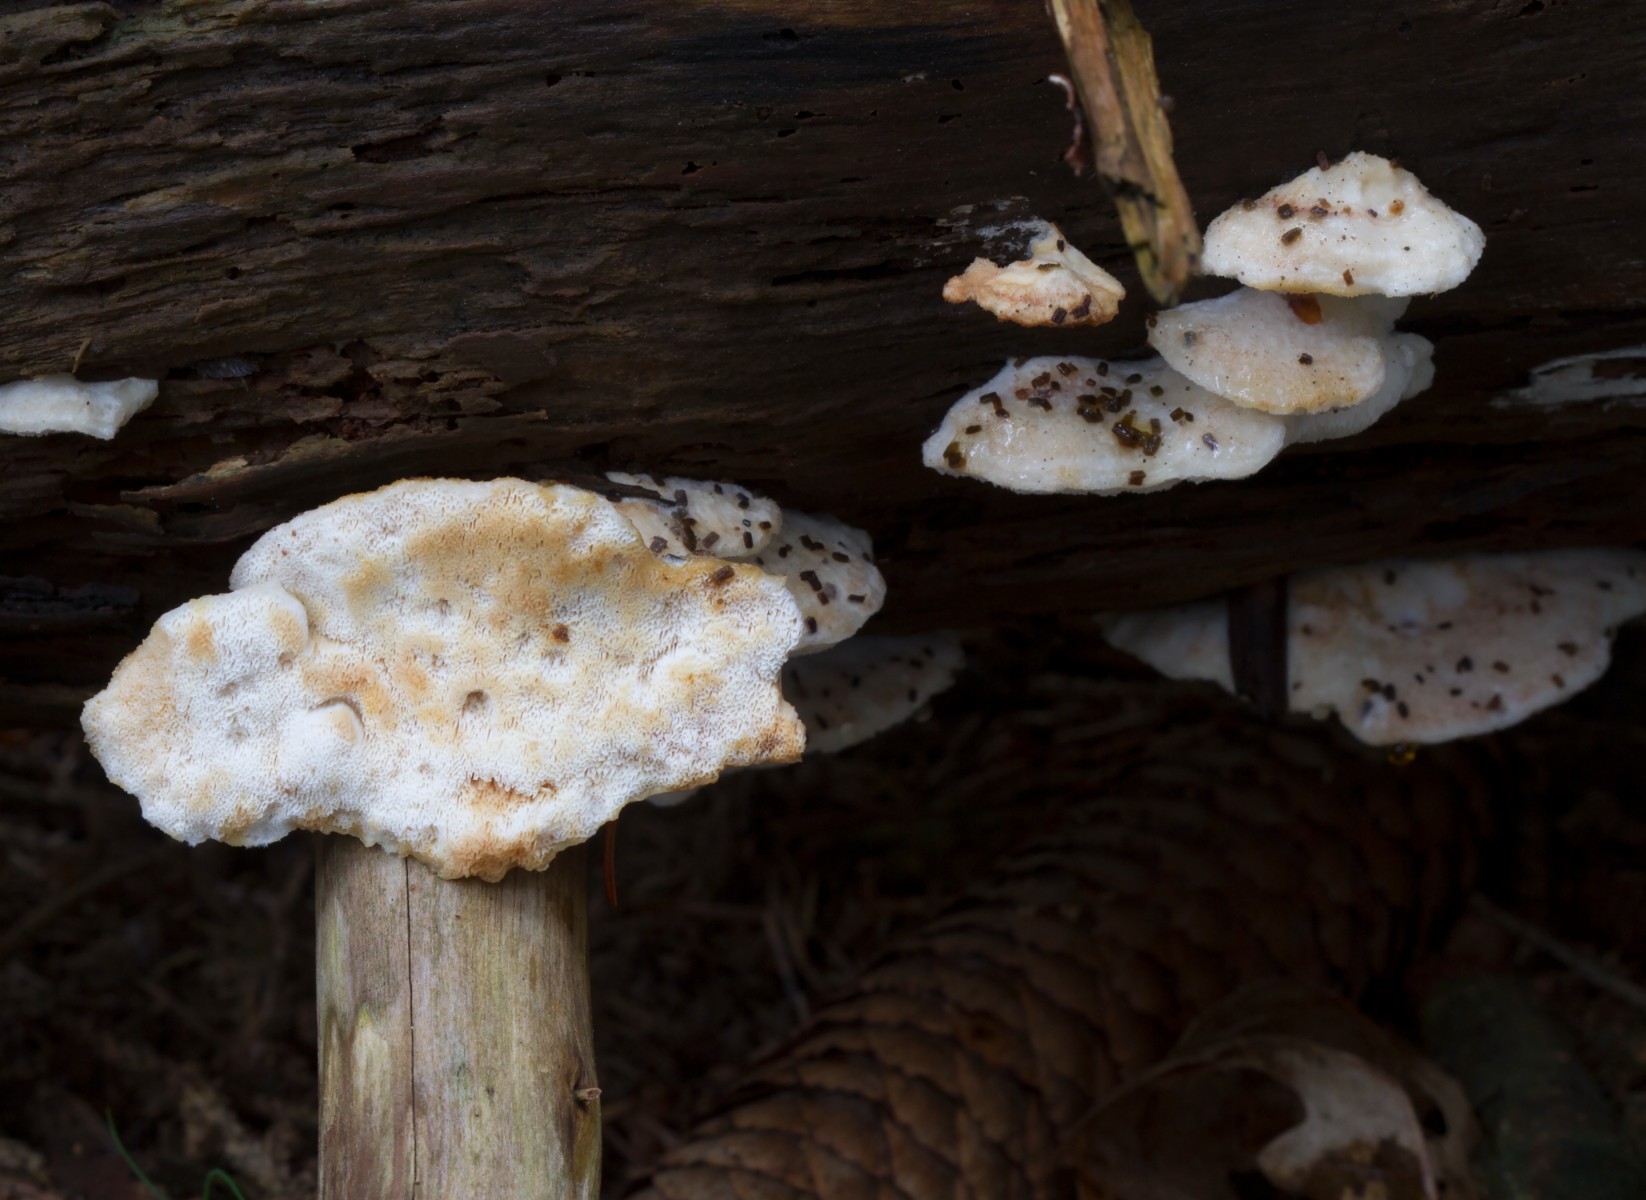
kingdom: Fungi
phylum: Basidiomycota
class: Agaricomycetes
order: Polyporales
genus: Fuscopostia
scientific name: Fuscopostia fragilis
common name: brunende kødporesvamp
